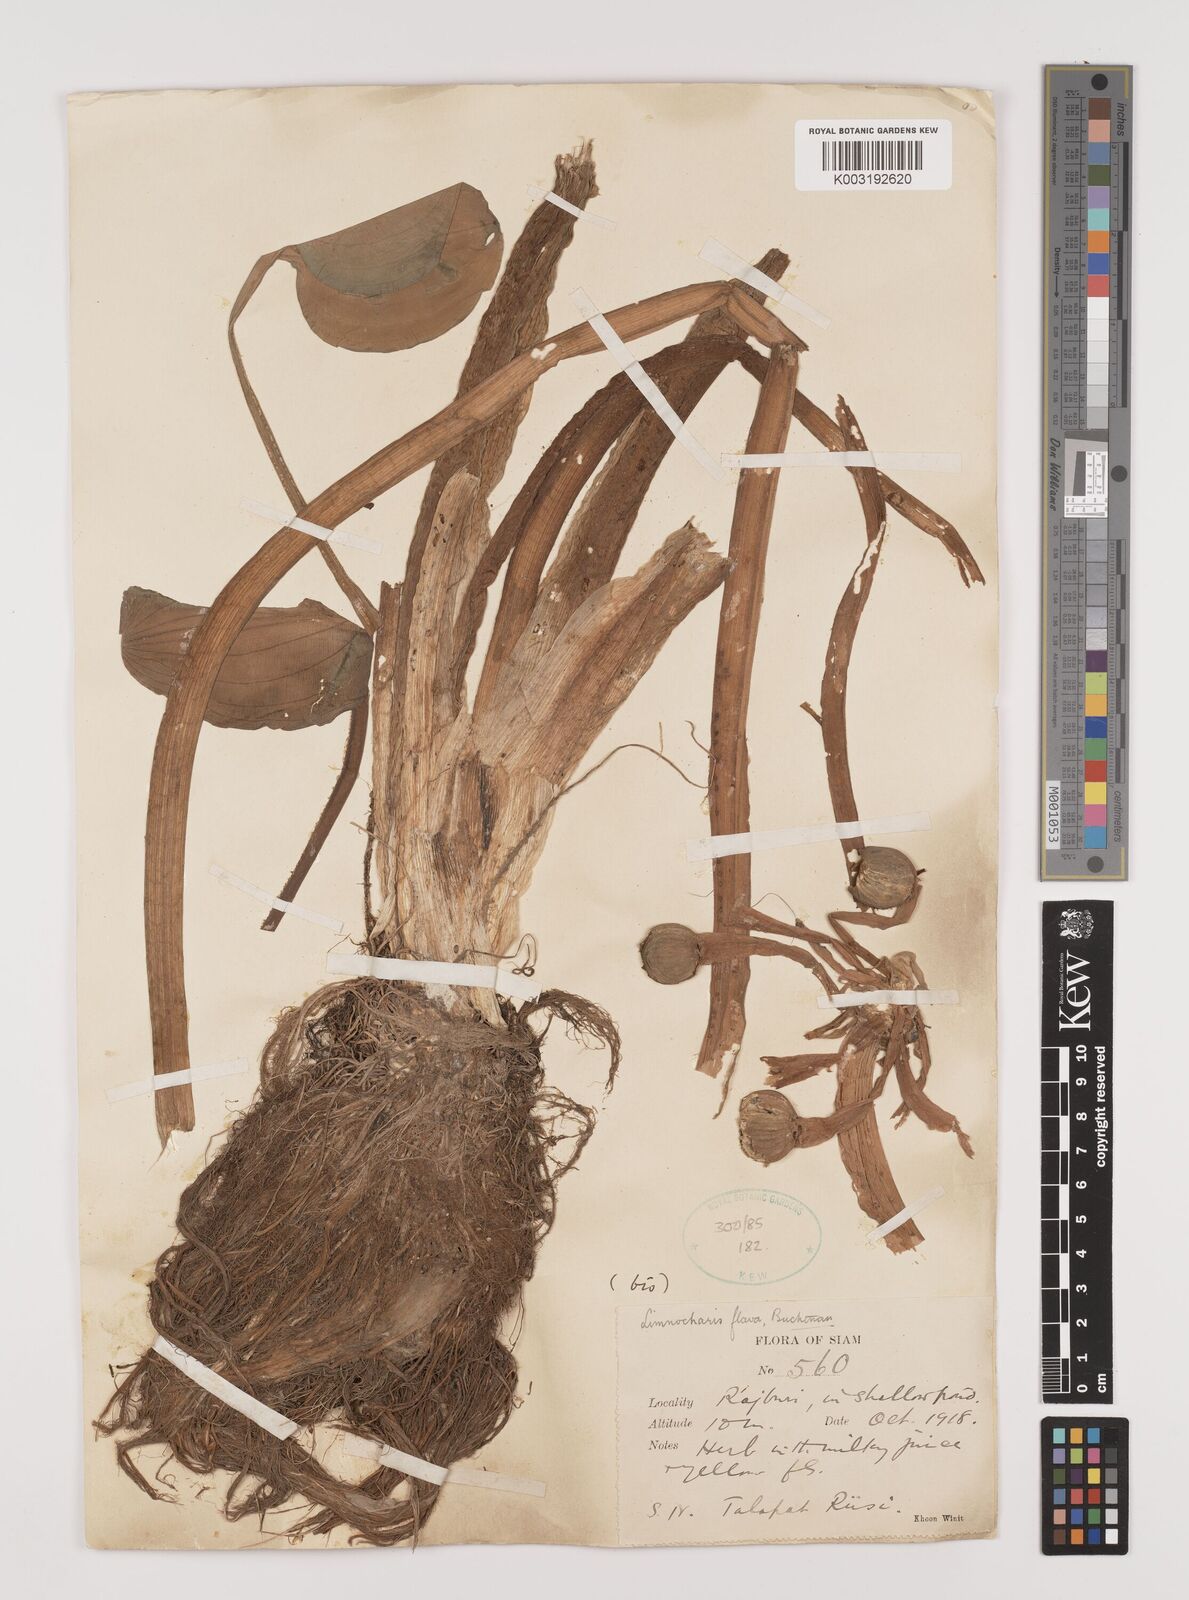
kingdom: Plantae
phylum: Tracheophyta
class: Liliopsida
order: Alismatales
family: Alismataceae
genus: Limnocharis
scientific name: Limnocharis flava
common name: Sawah-flower-rush
